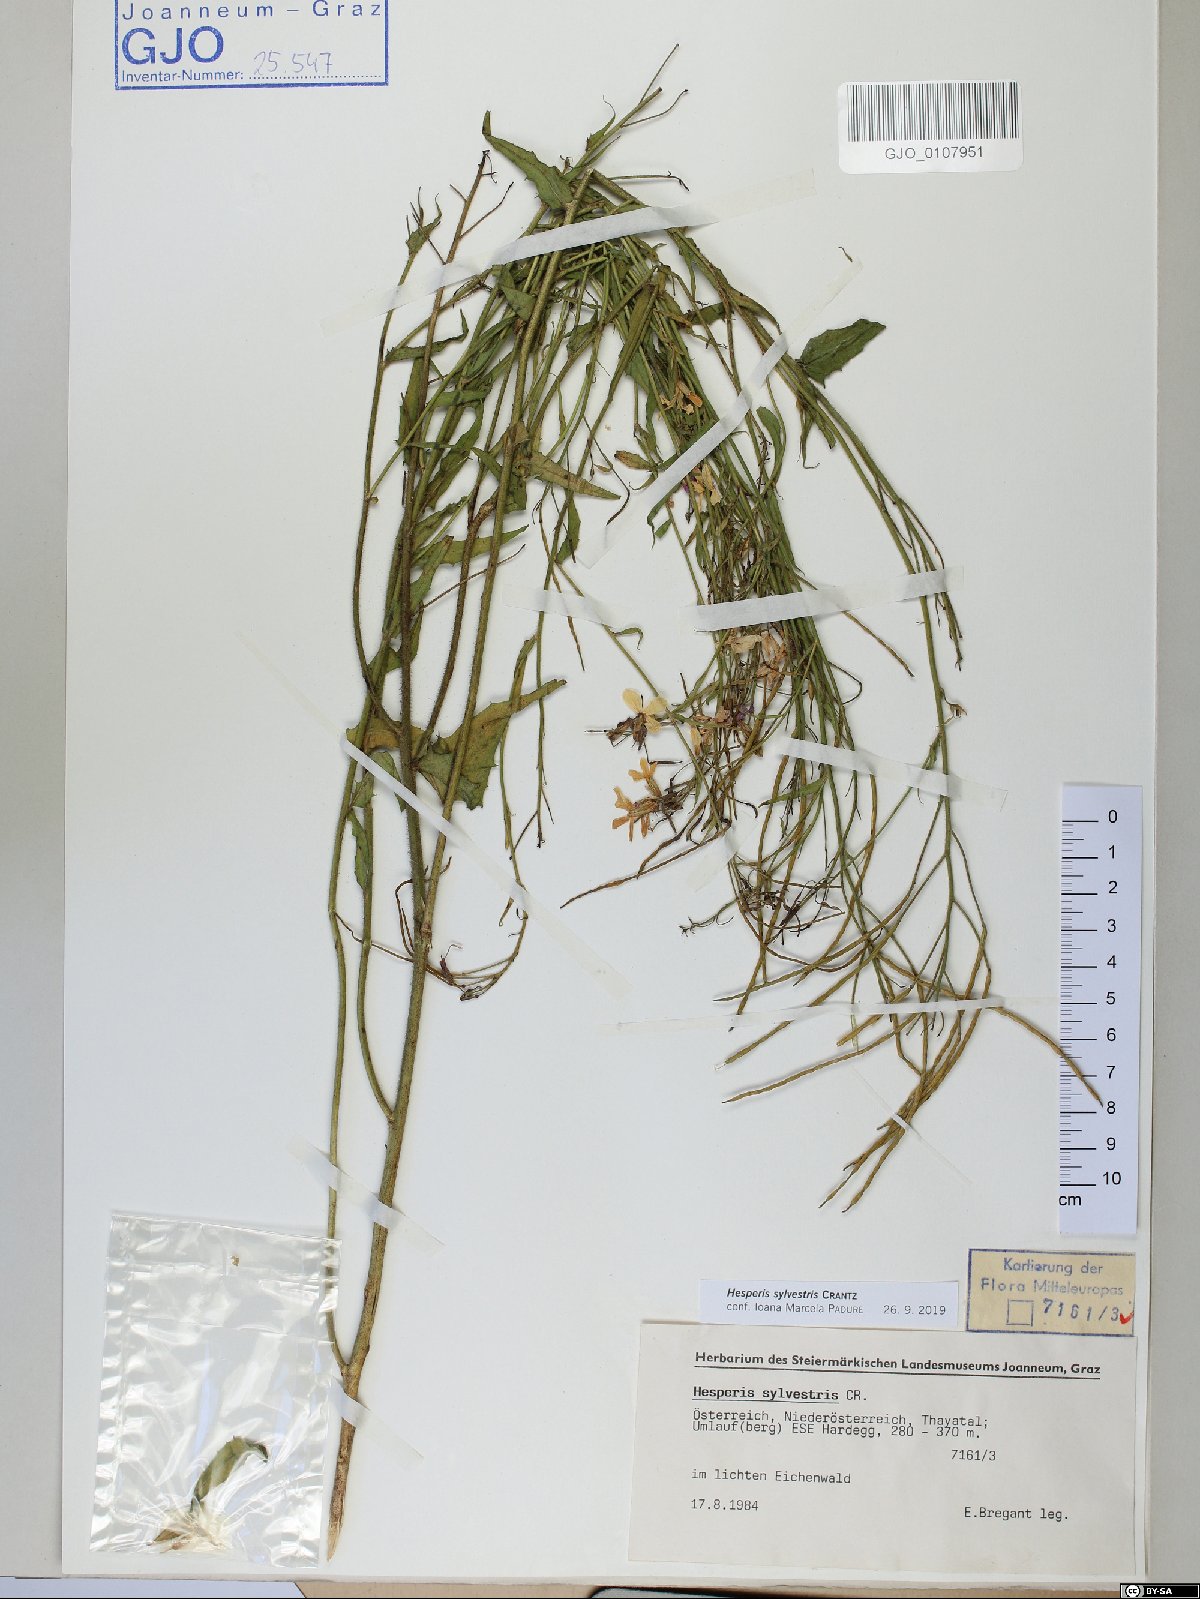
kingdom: Plantae
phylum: Tracheophyta
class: Magnoliopsida
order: Brassicales
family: Brassicaceae
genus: Hesperis
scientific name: Hesperis sylvestris
